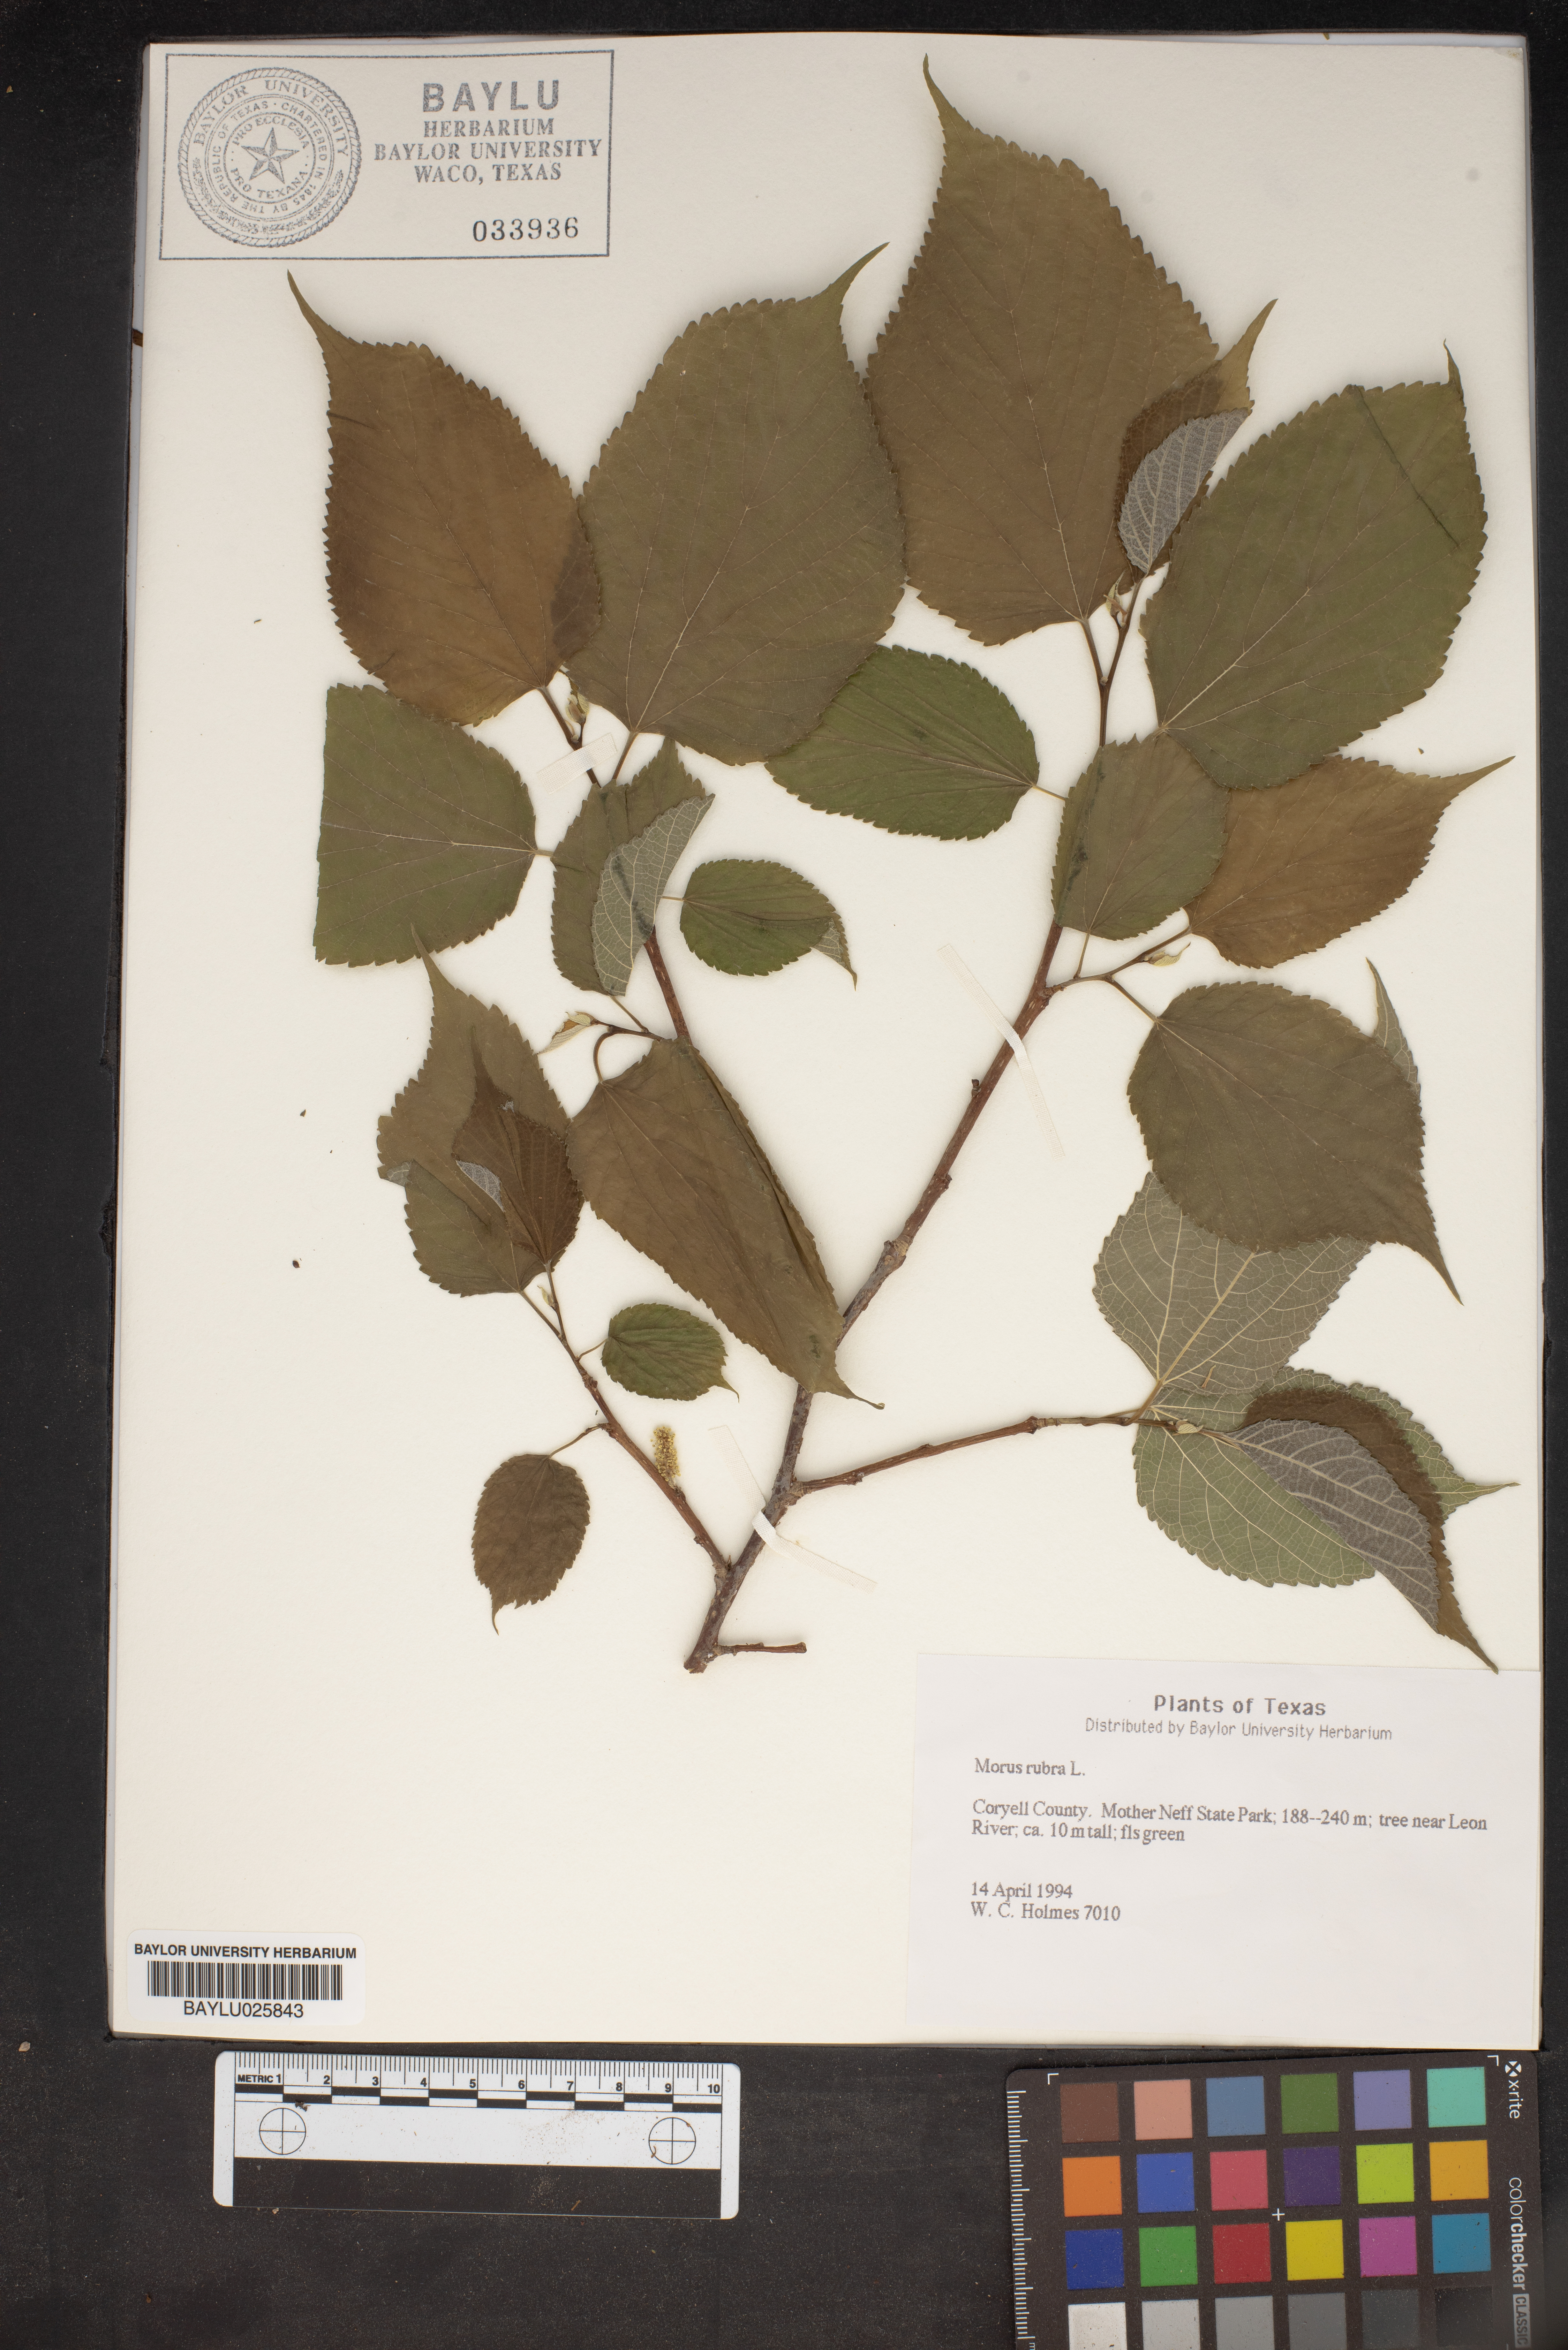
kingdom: Plantae
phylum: Tracheophyta
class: Magnoliopsida
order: Rosales
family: Moraceae
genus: Morus
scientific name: Morus rubra
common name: Red mulberry
